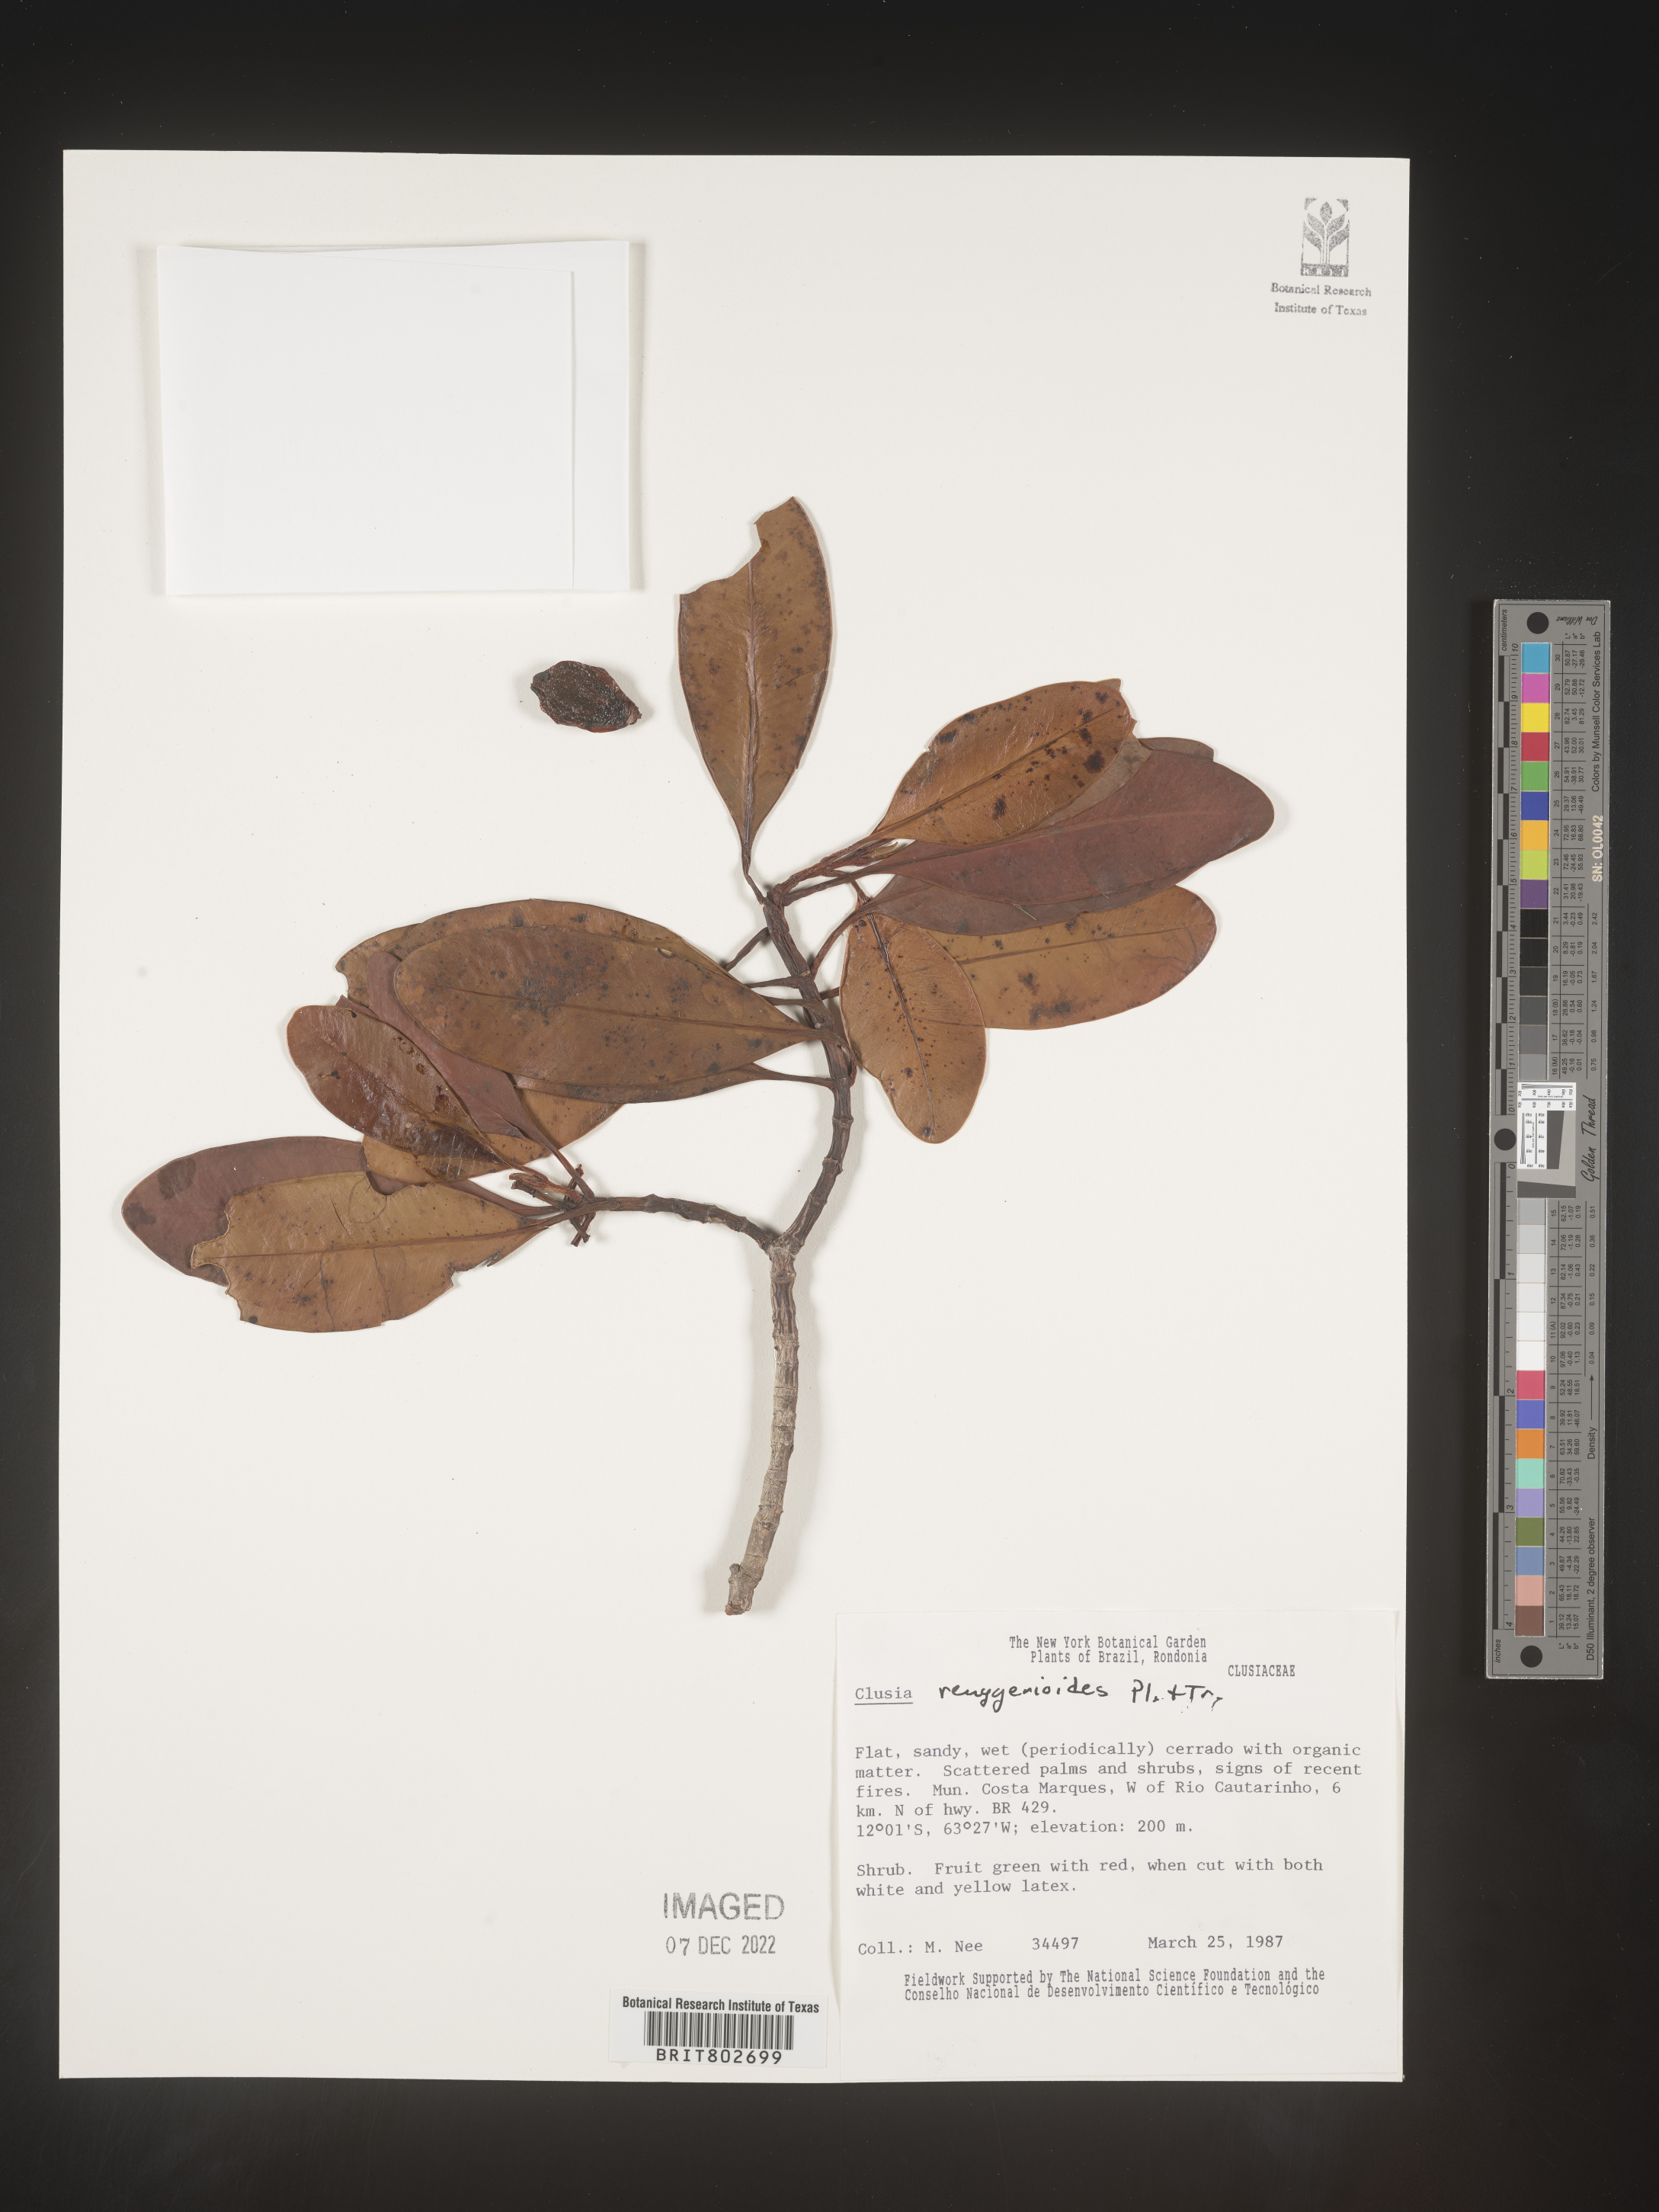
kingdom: Plantae
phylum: Tracheophyta
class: Magnoliopsida
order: Malpighiales
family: Clusiaceae
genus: Clusia
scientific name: Clusia renggerioides
